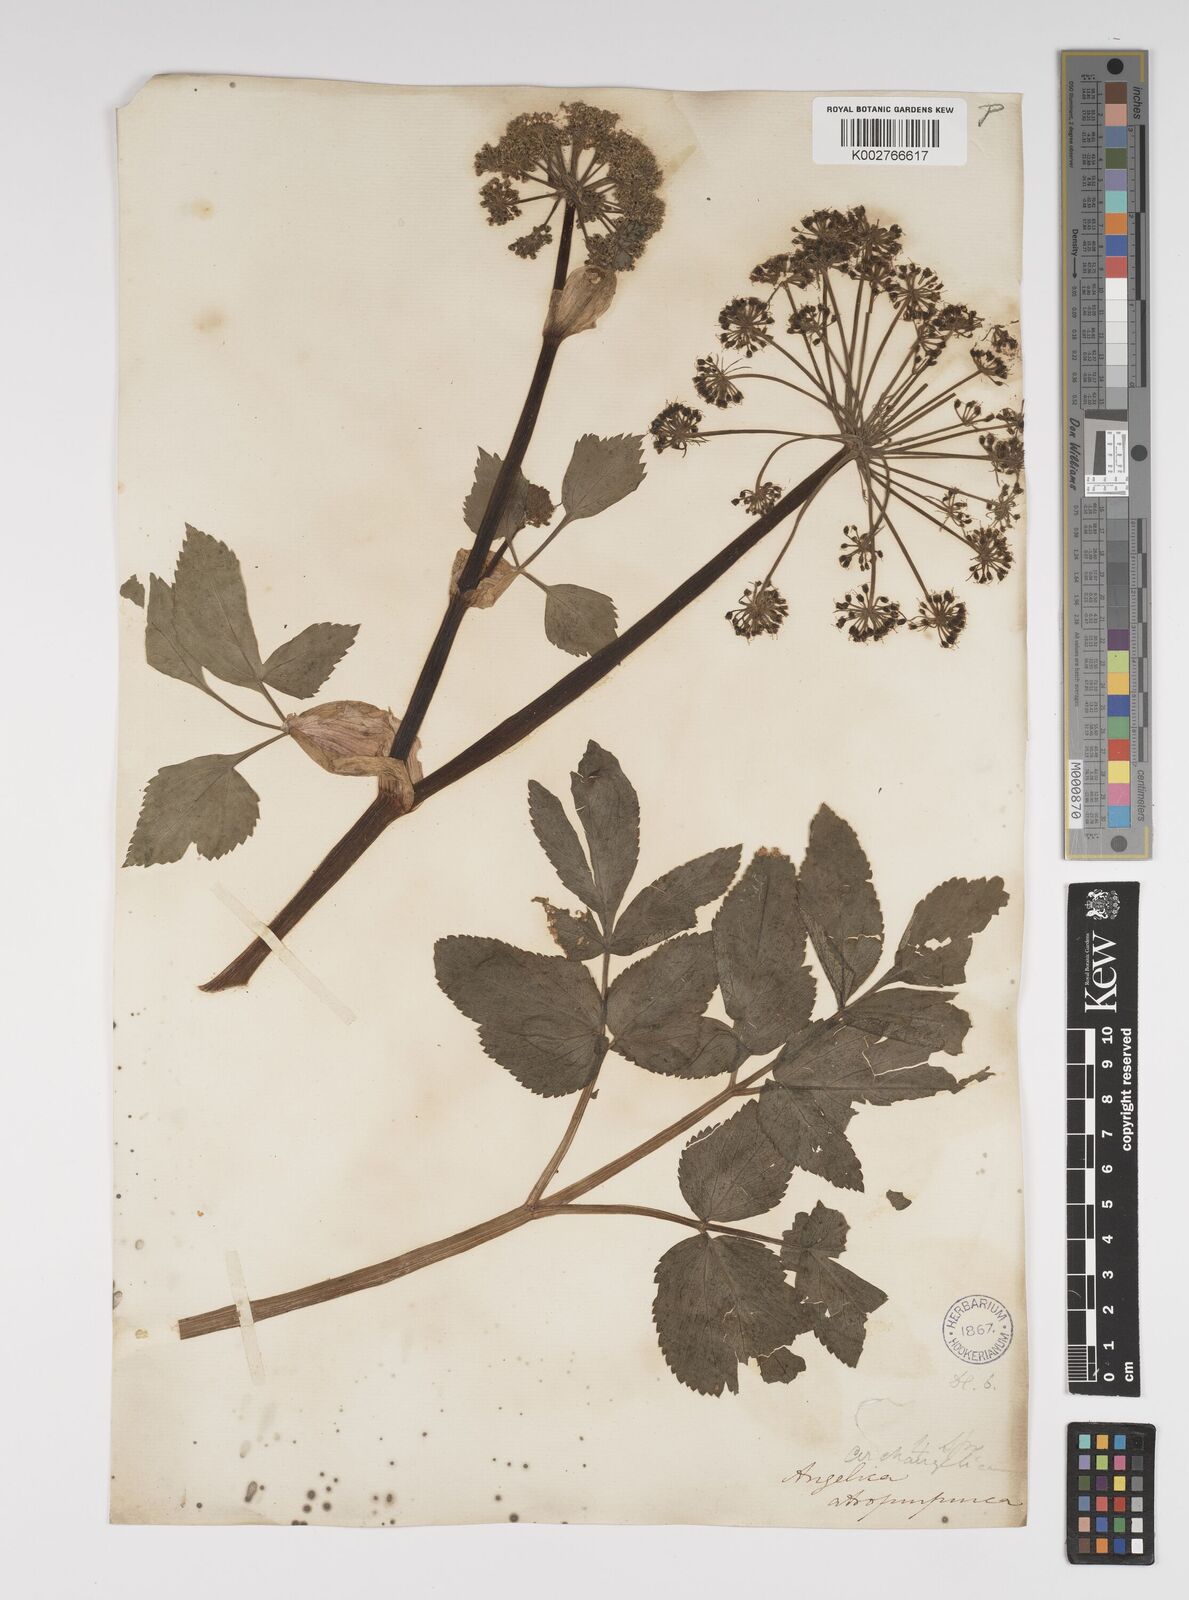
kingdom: Plantae
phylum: Tracheophyta
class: Magnoliopsida
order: Apiales
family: Apiaceae
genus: Angelica
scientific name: Angelica atropurpurea
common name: Great angelica
